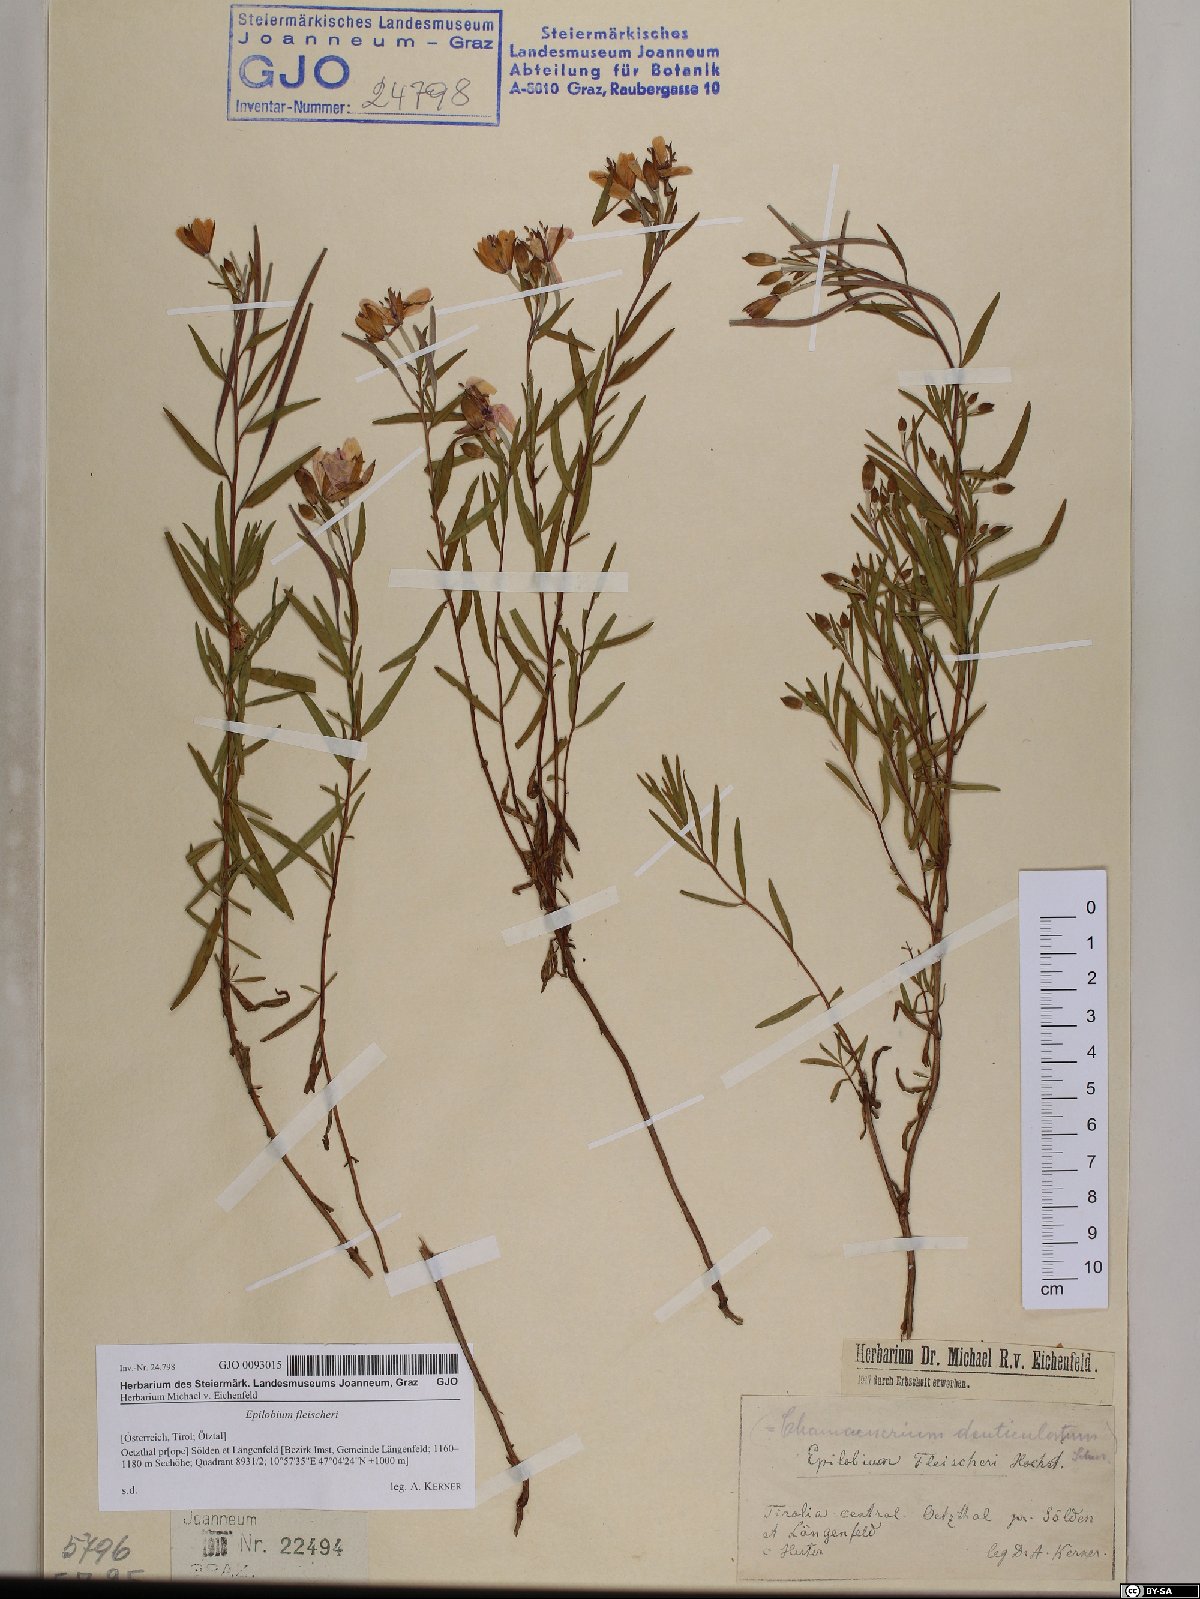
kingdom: Plantae
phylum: Tracheophyta
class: Magnoliopsida
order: Myrtales
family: Onagraceae
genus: Chamaenerion
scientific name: Chamaenerion fleischeri
